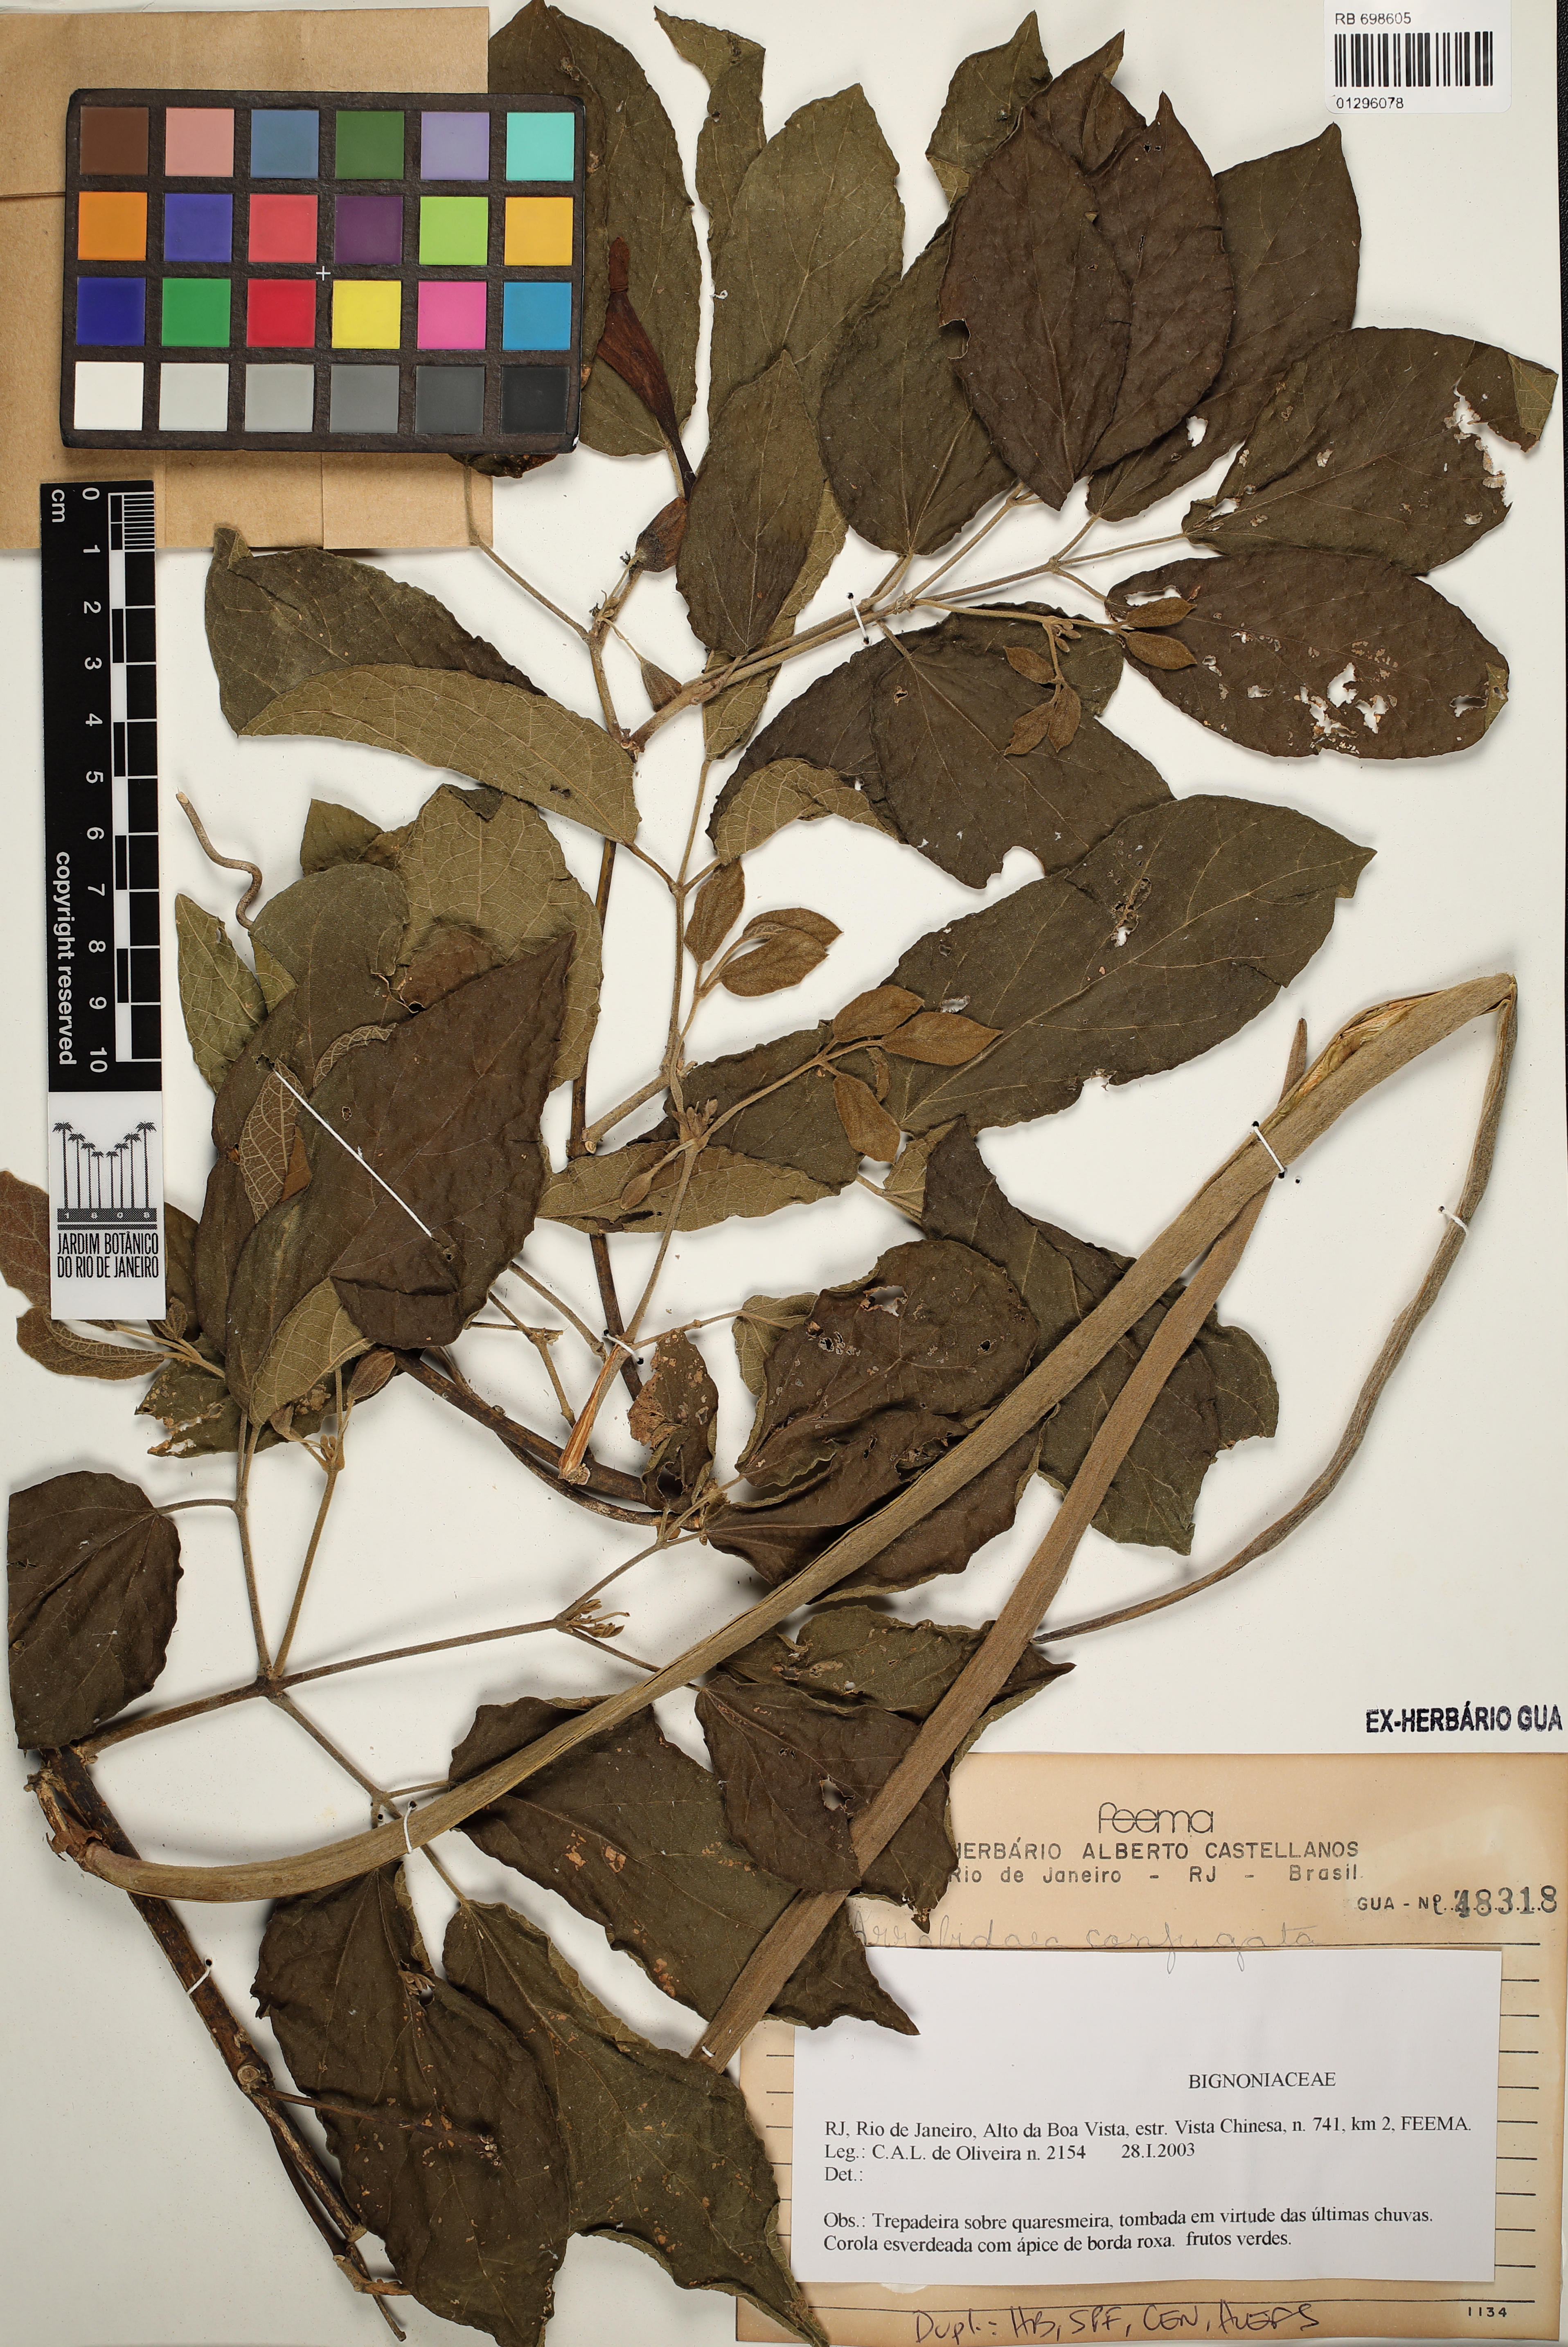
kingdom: Plantae
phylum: Tracheophyta
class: Magnoliopsida
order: Lamiales
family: Bignoniaceae
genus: Stizophyllum
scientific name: Stizophyllum perforatum
